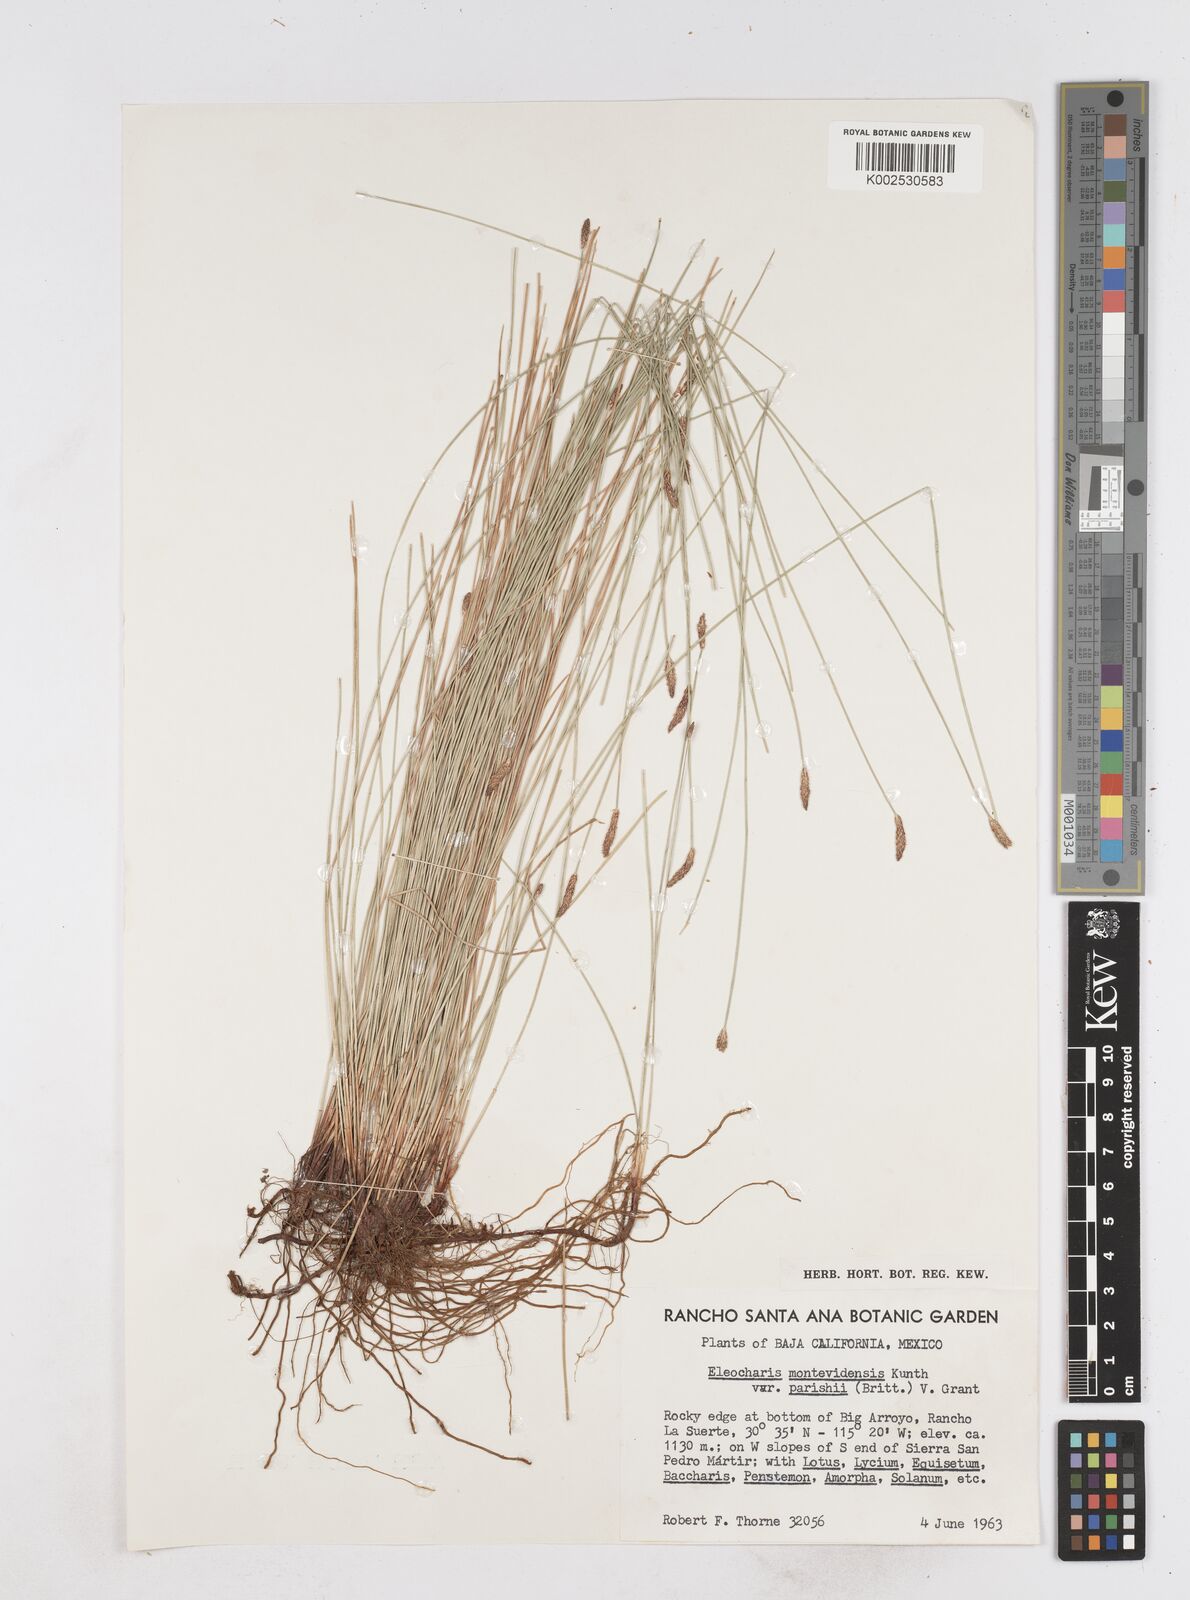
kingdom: Plantae
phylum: Tracheophyta
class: Liliopsida
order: Poales
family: Cyperaceae
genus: Eleocharis
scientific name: Eleocharis parishii
